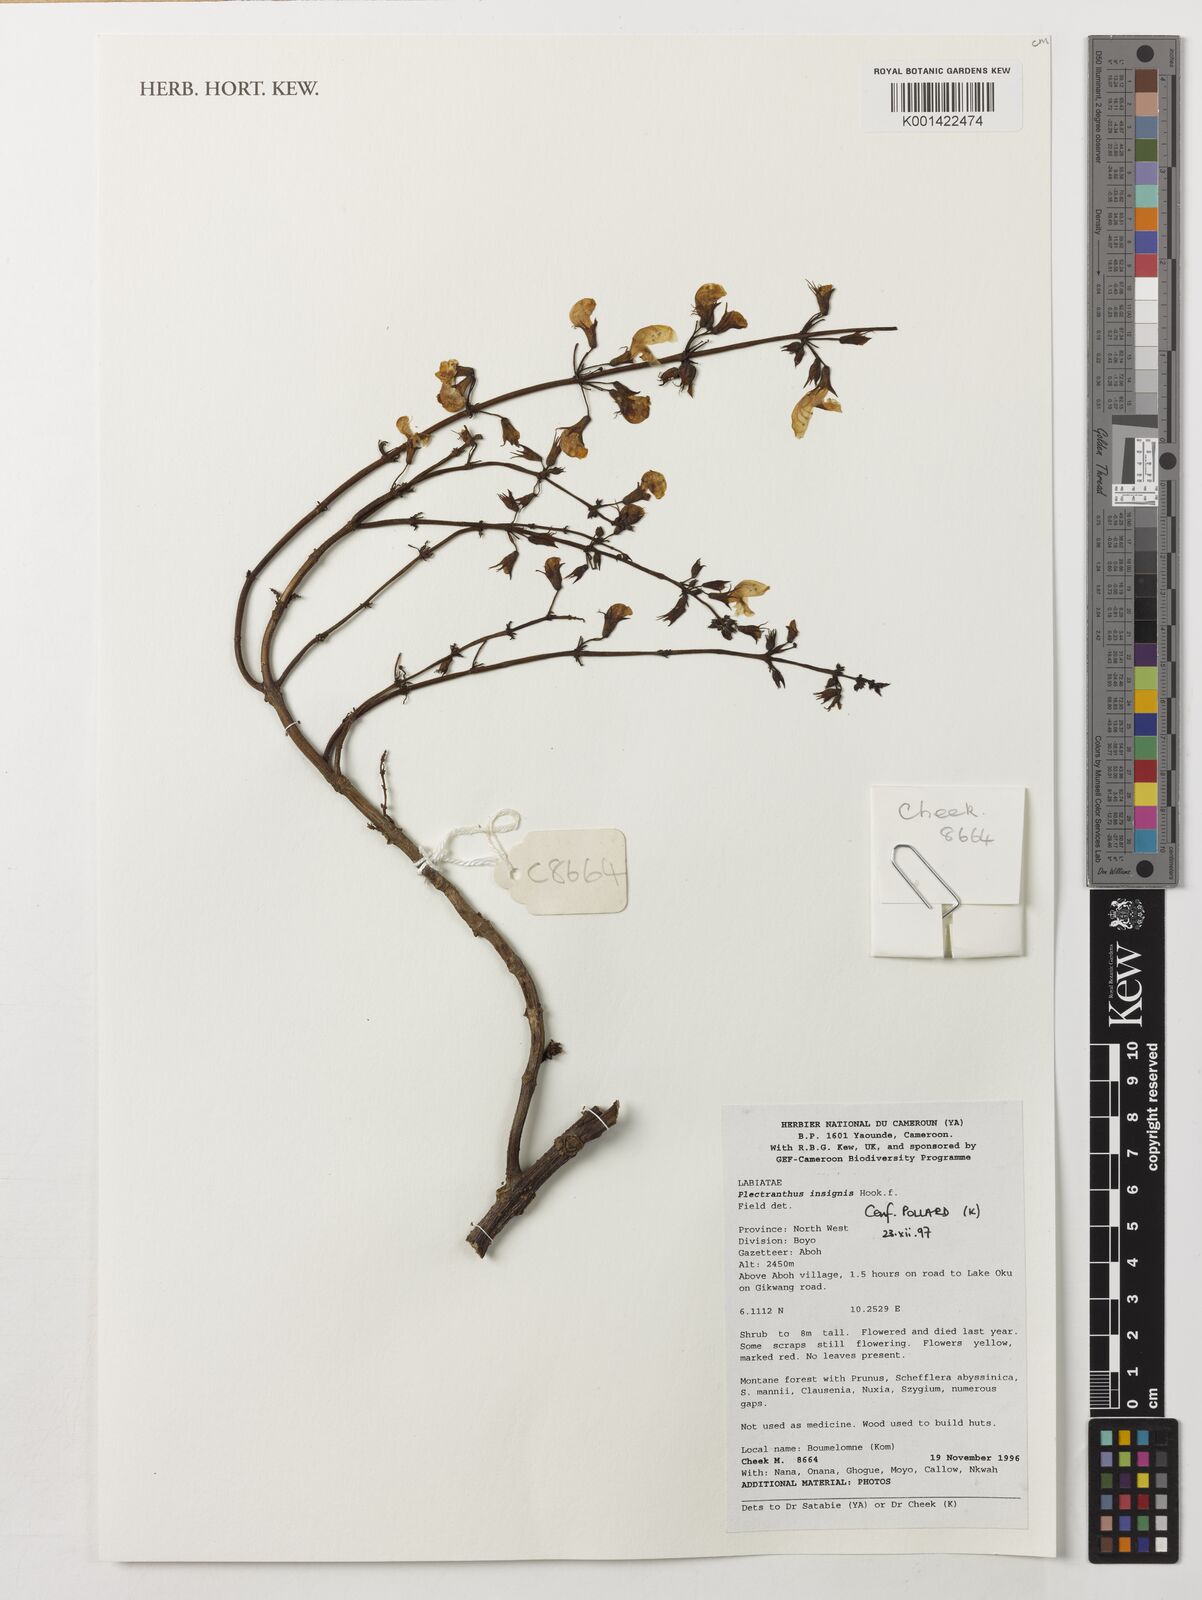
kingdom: Plantae
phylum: Tracheophyta
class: Magnoliopsida
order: Lamiales
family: Lamiaceae
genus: Coleus
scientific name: Coleus insignis
